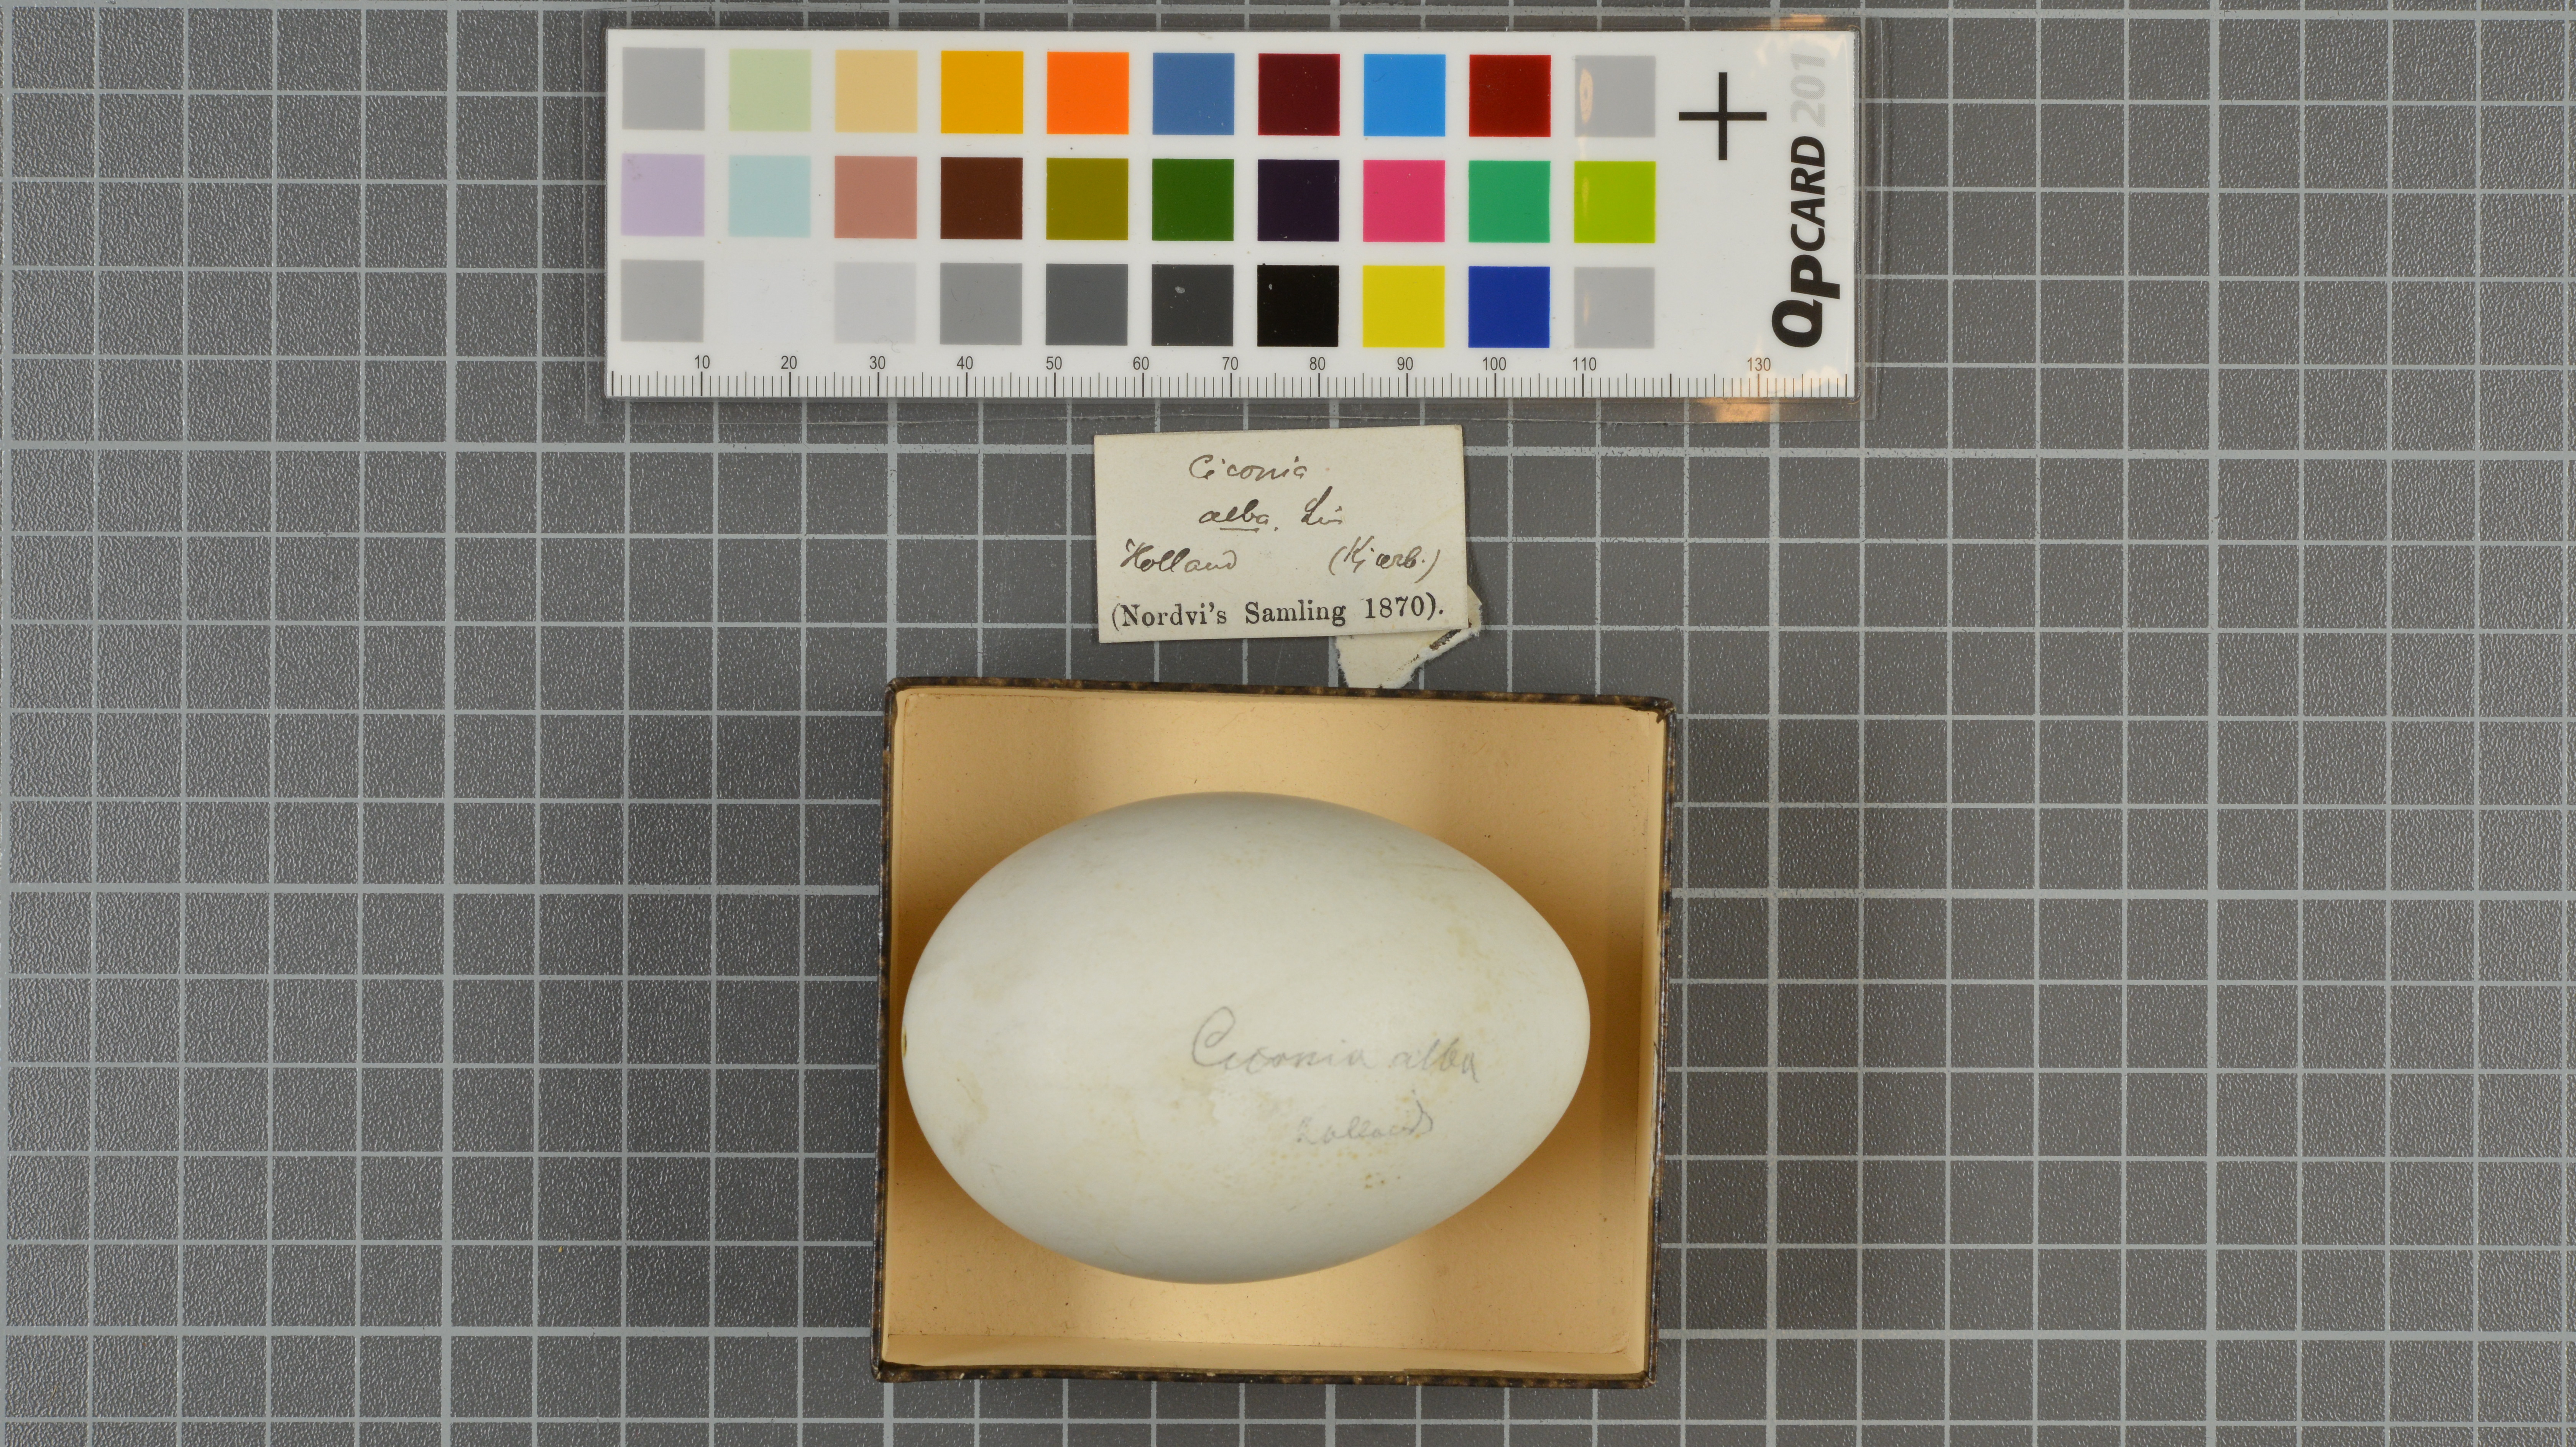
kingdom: Animalia
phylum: Chordata
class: Aves
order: Ciconiiformes
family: Ciconiidae
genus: Ciconia
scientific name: Ciconia ciconia
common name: White stork
